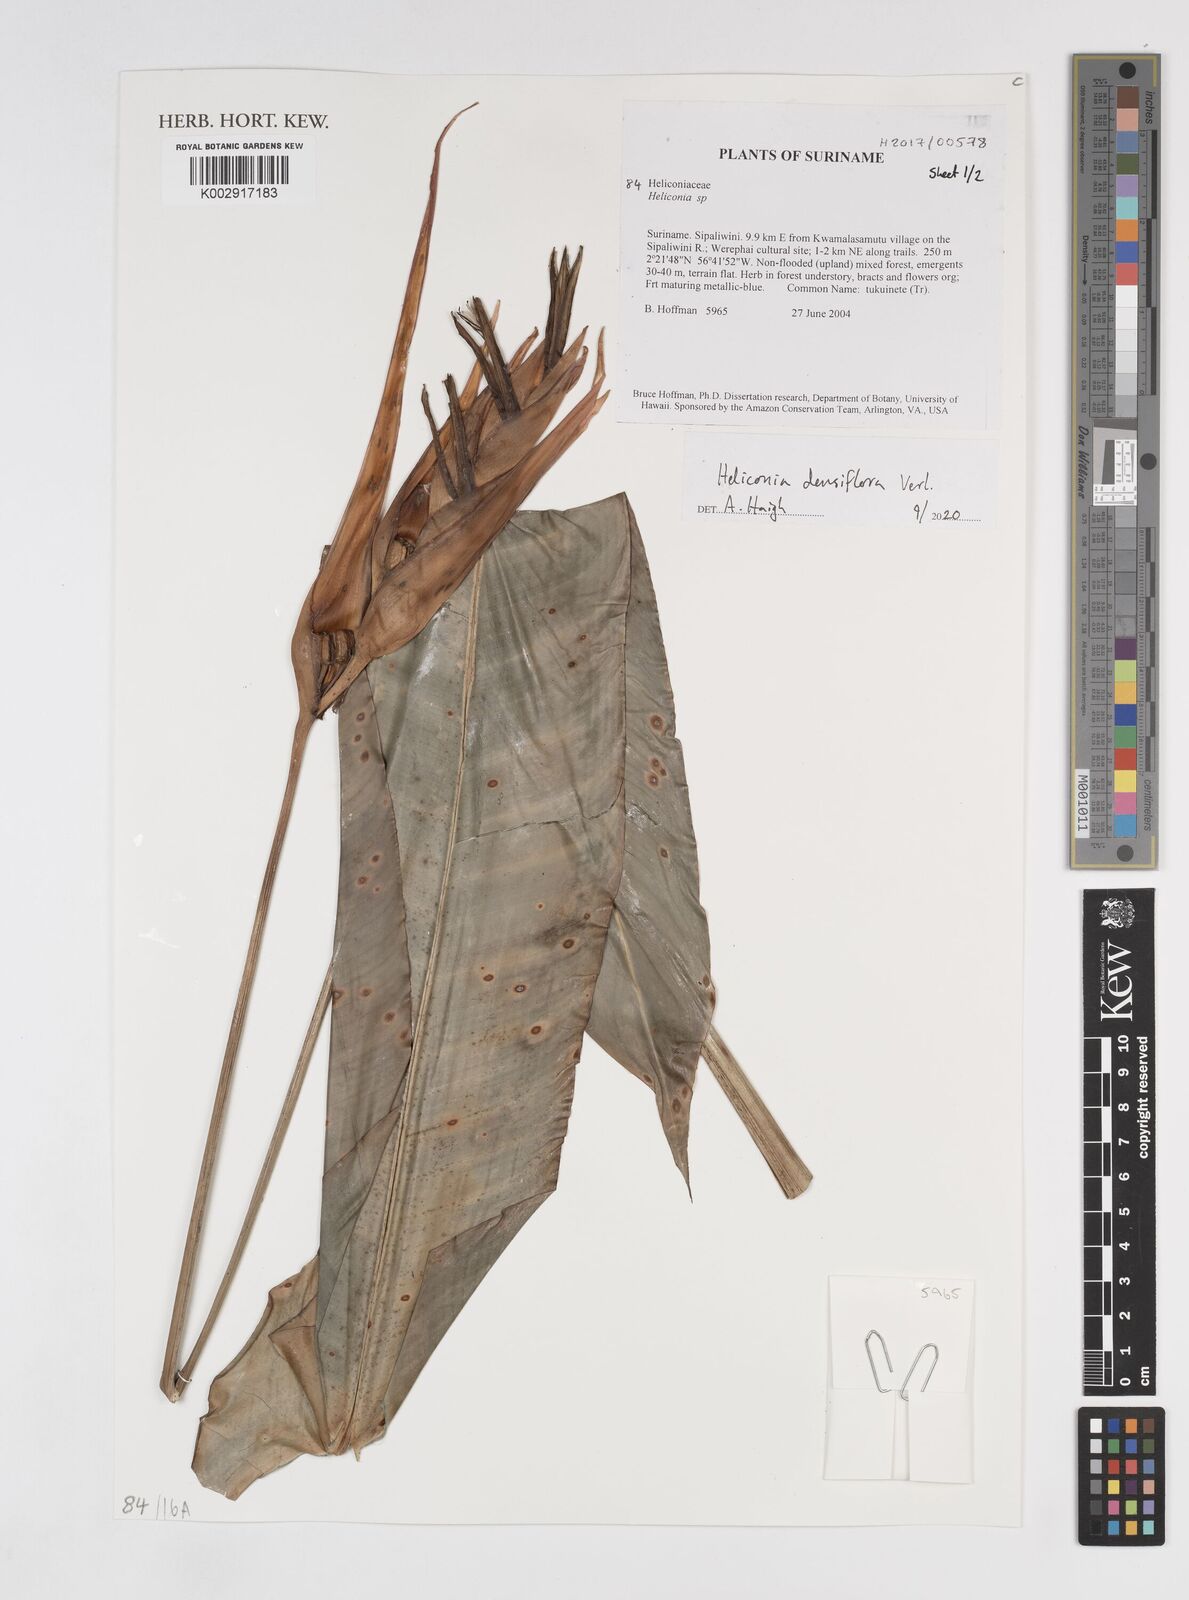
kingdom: Plantae
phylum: Tracheophyta
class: Liliopsida
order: Zingiberales
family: Heliconiaceae
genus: Heliconia
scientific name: Heliconia densiflora
